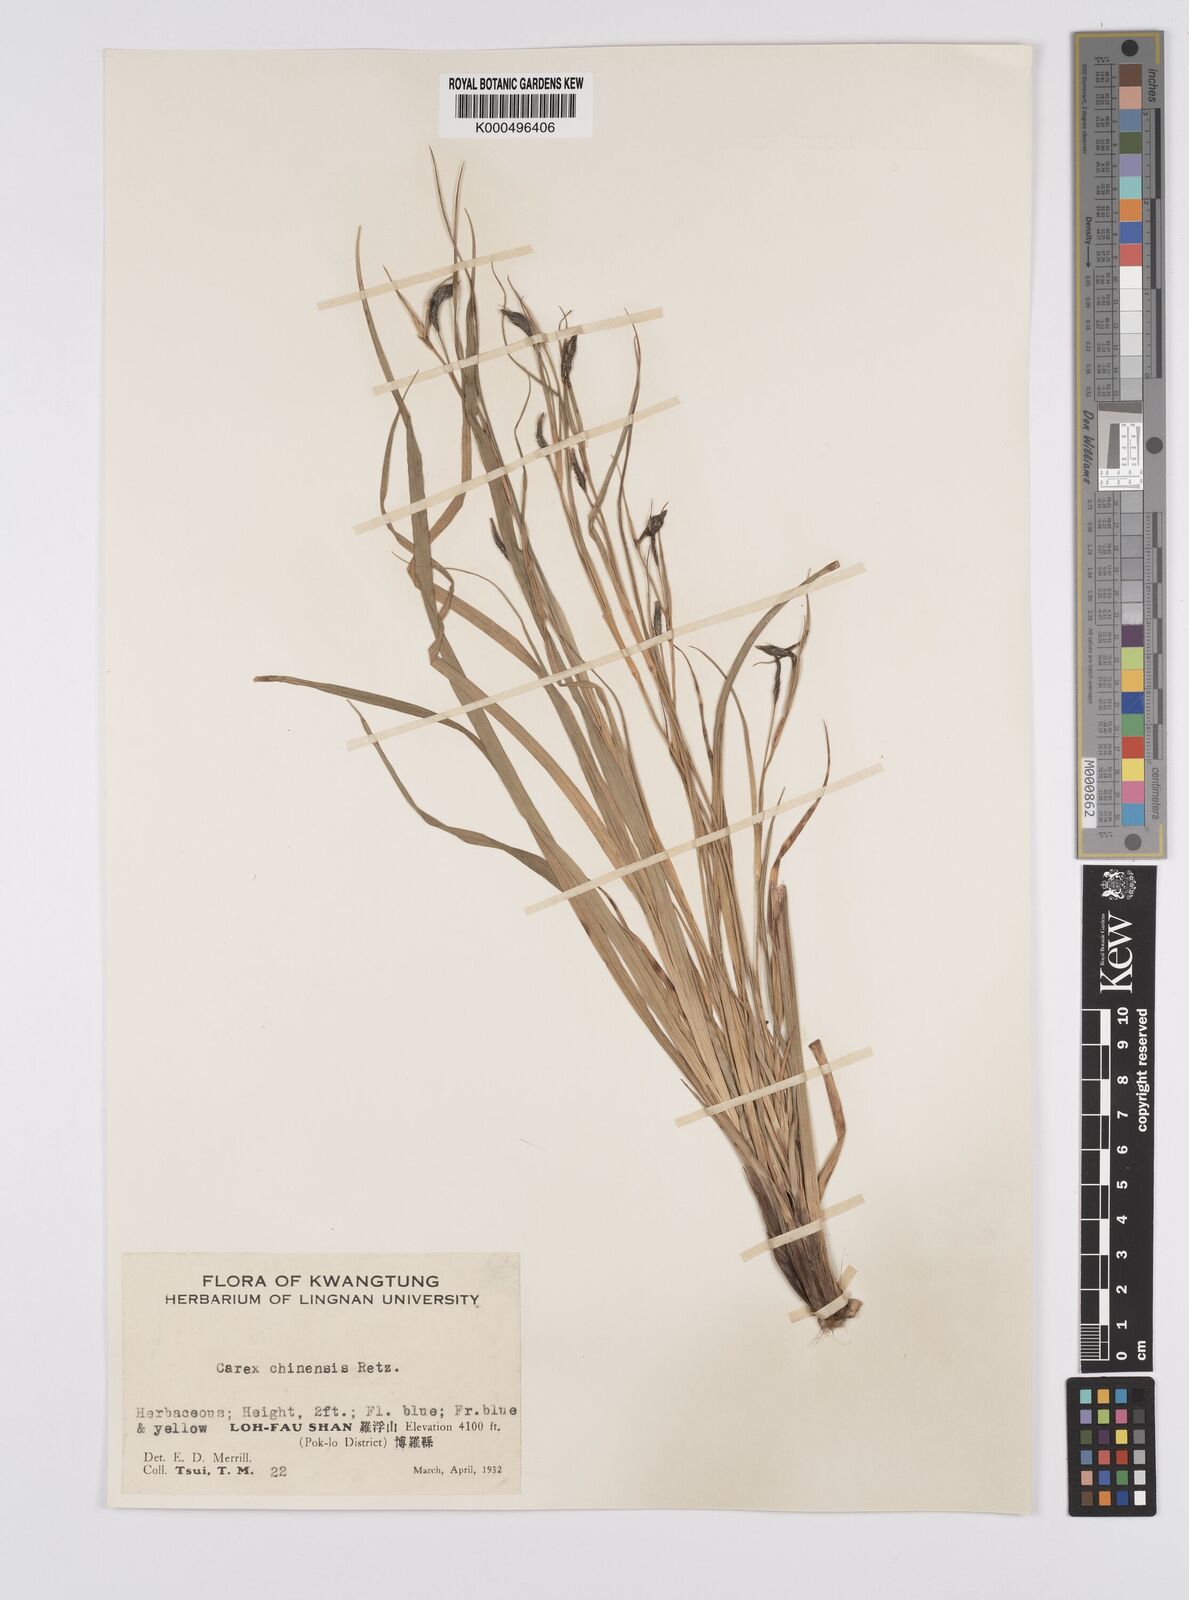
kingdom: Plantae
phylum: Tracheophyta
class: Liliopsida
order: Poales
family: Cyperaceae
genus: Carex
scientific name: Carex chinensis
